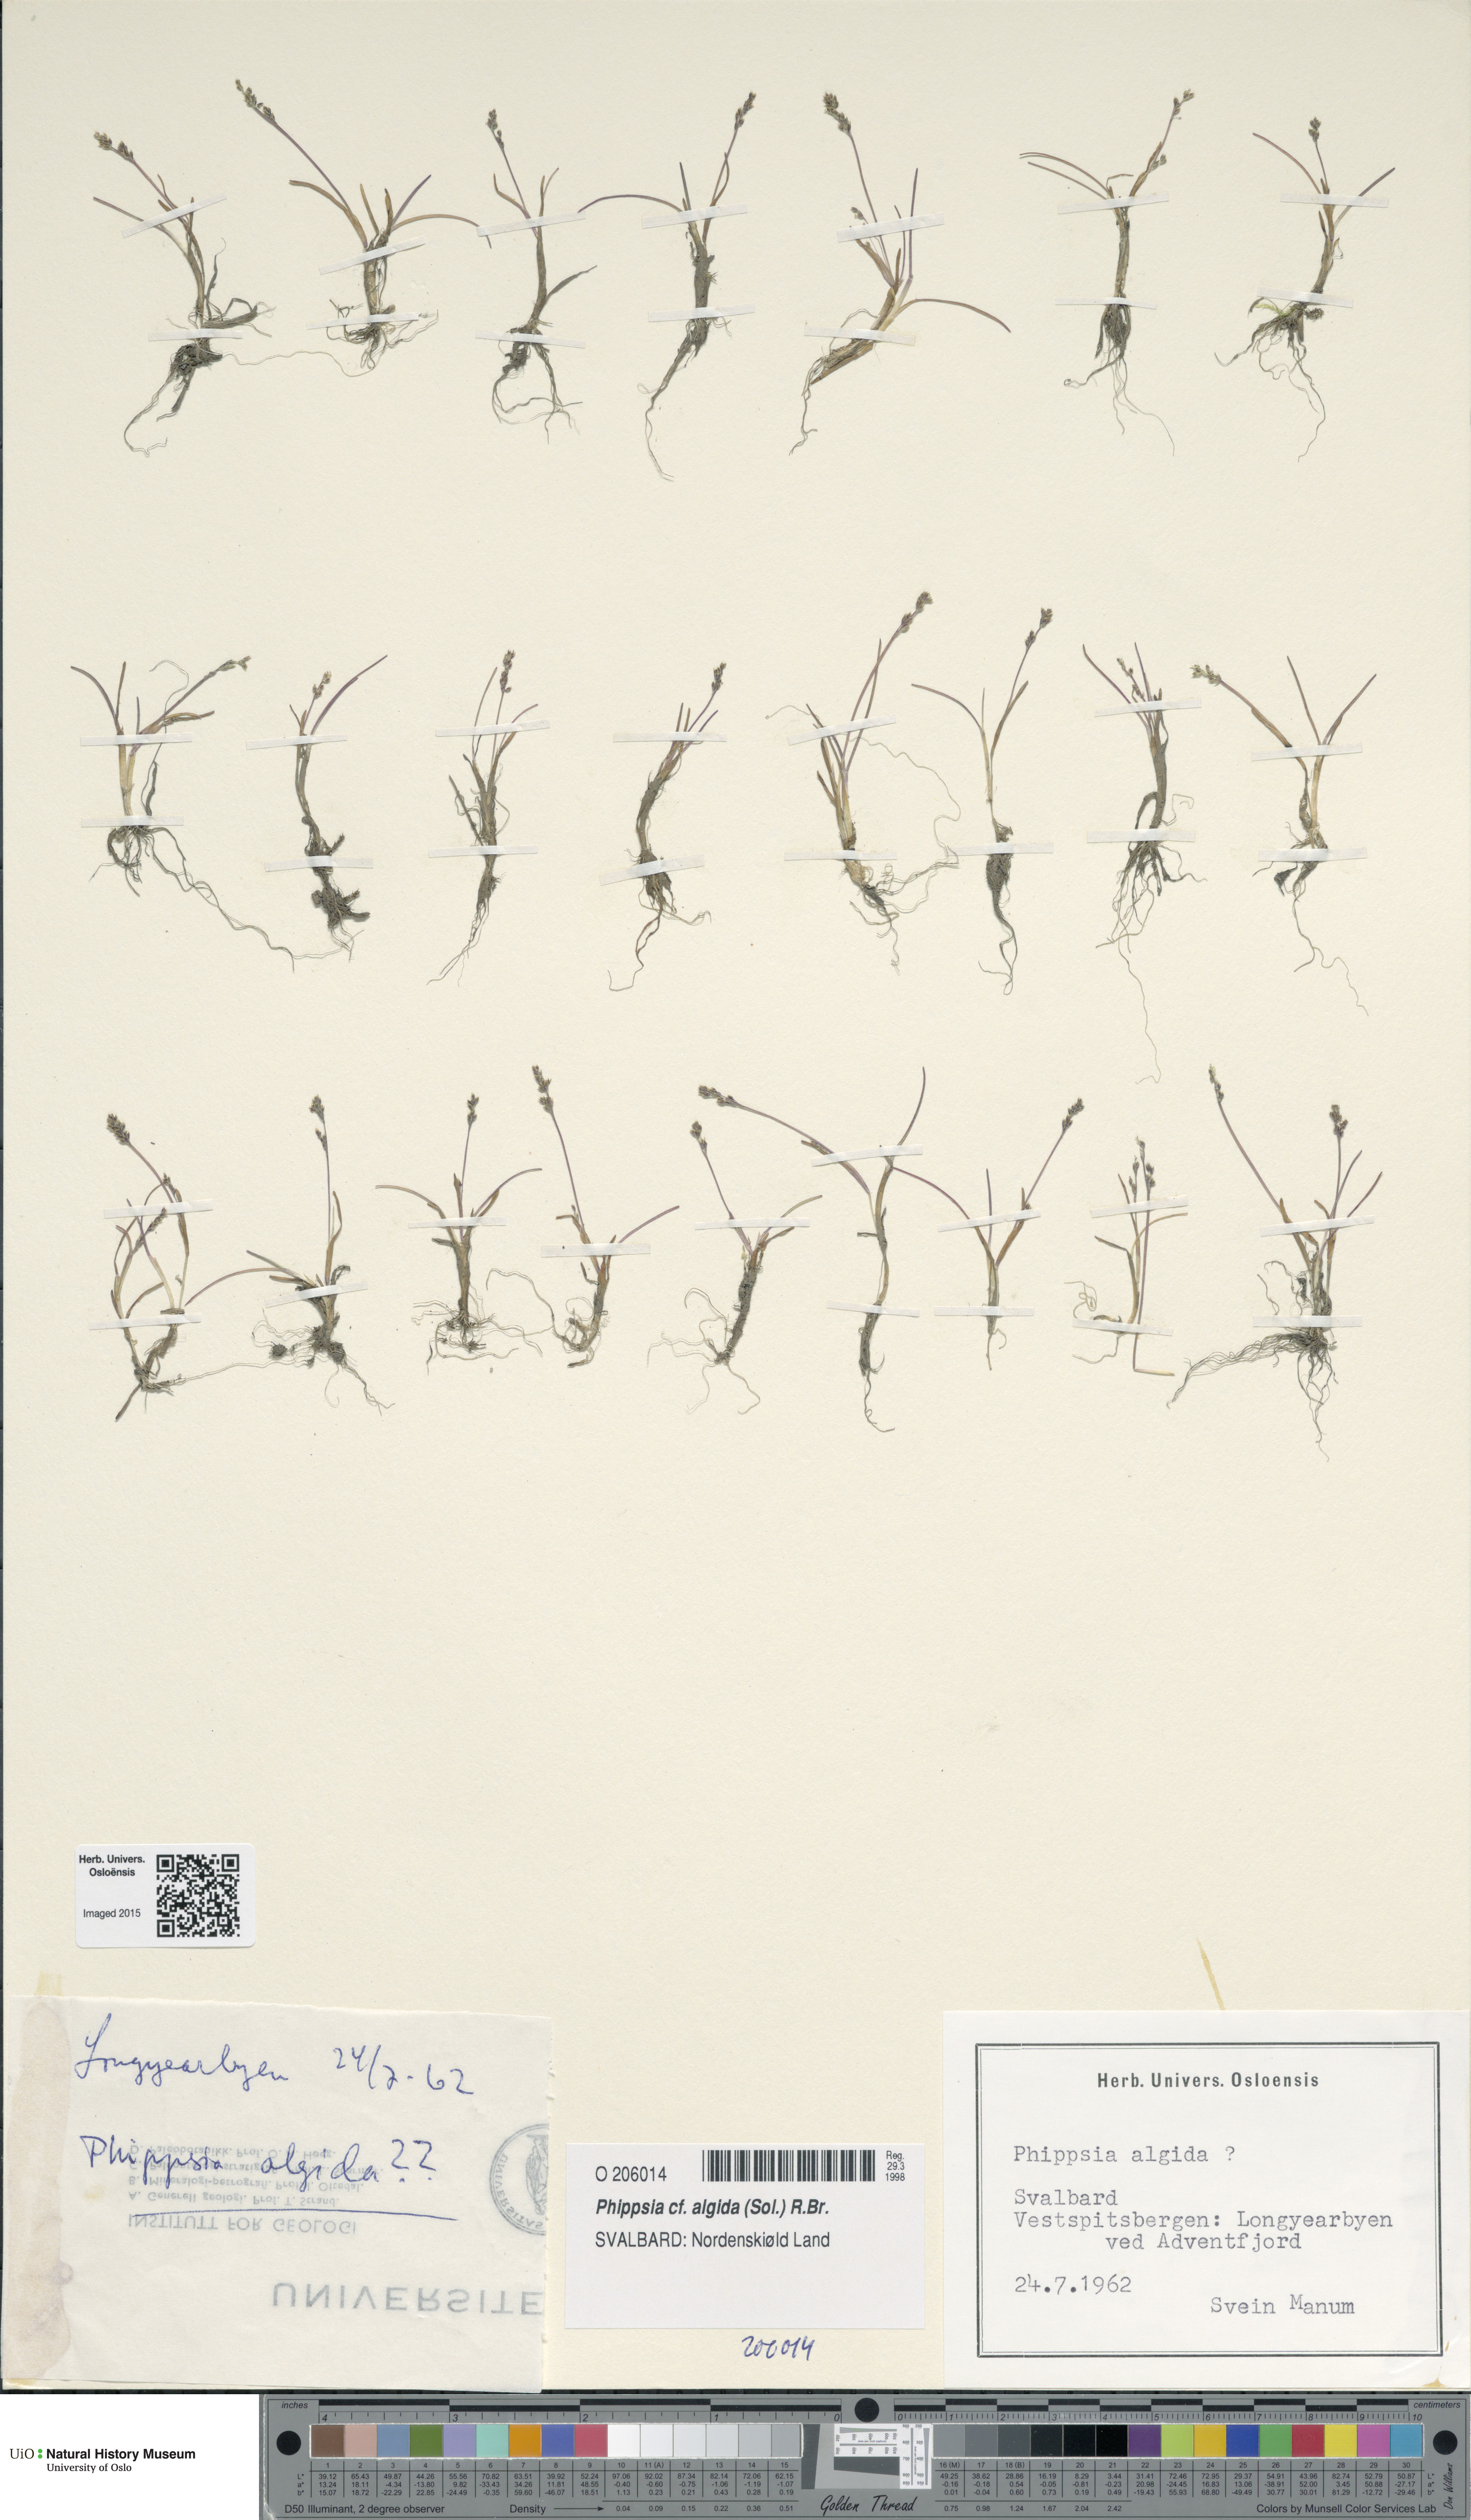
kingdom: Plantae
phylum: Tracheophyta
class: Liliopsida
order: Poales
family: Poaceae
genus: Phippsia
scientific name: Phippsia algida
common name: Ice grass
